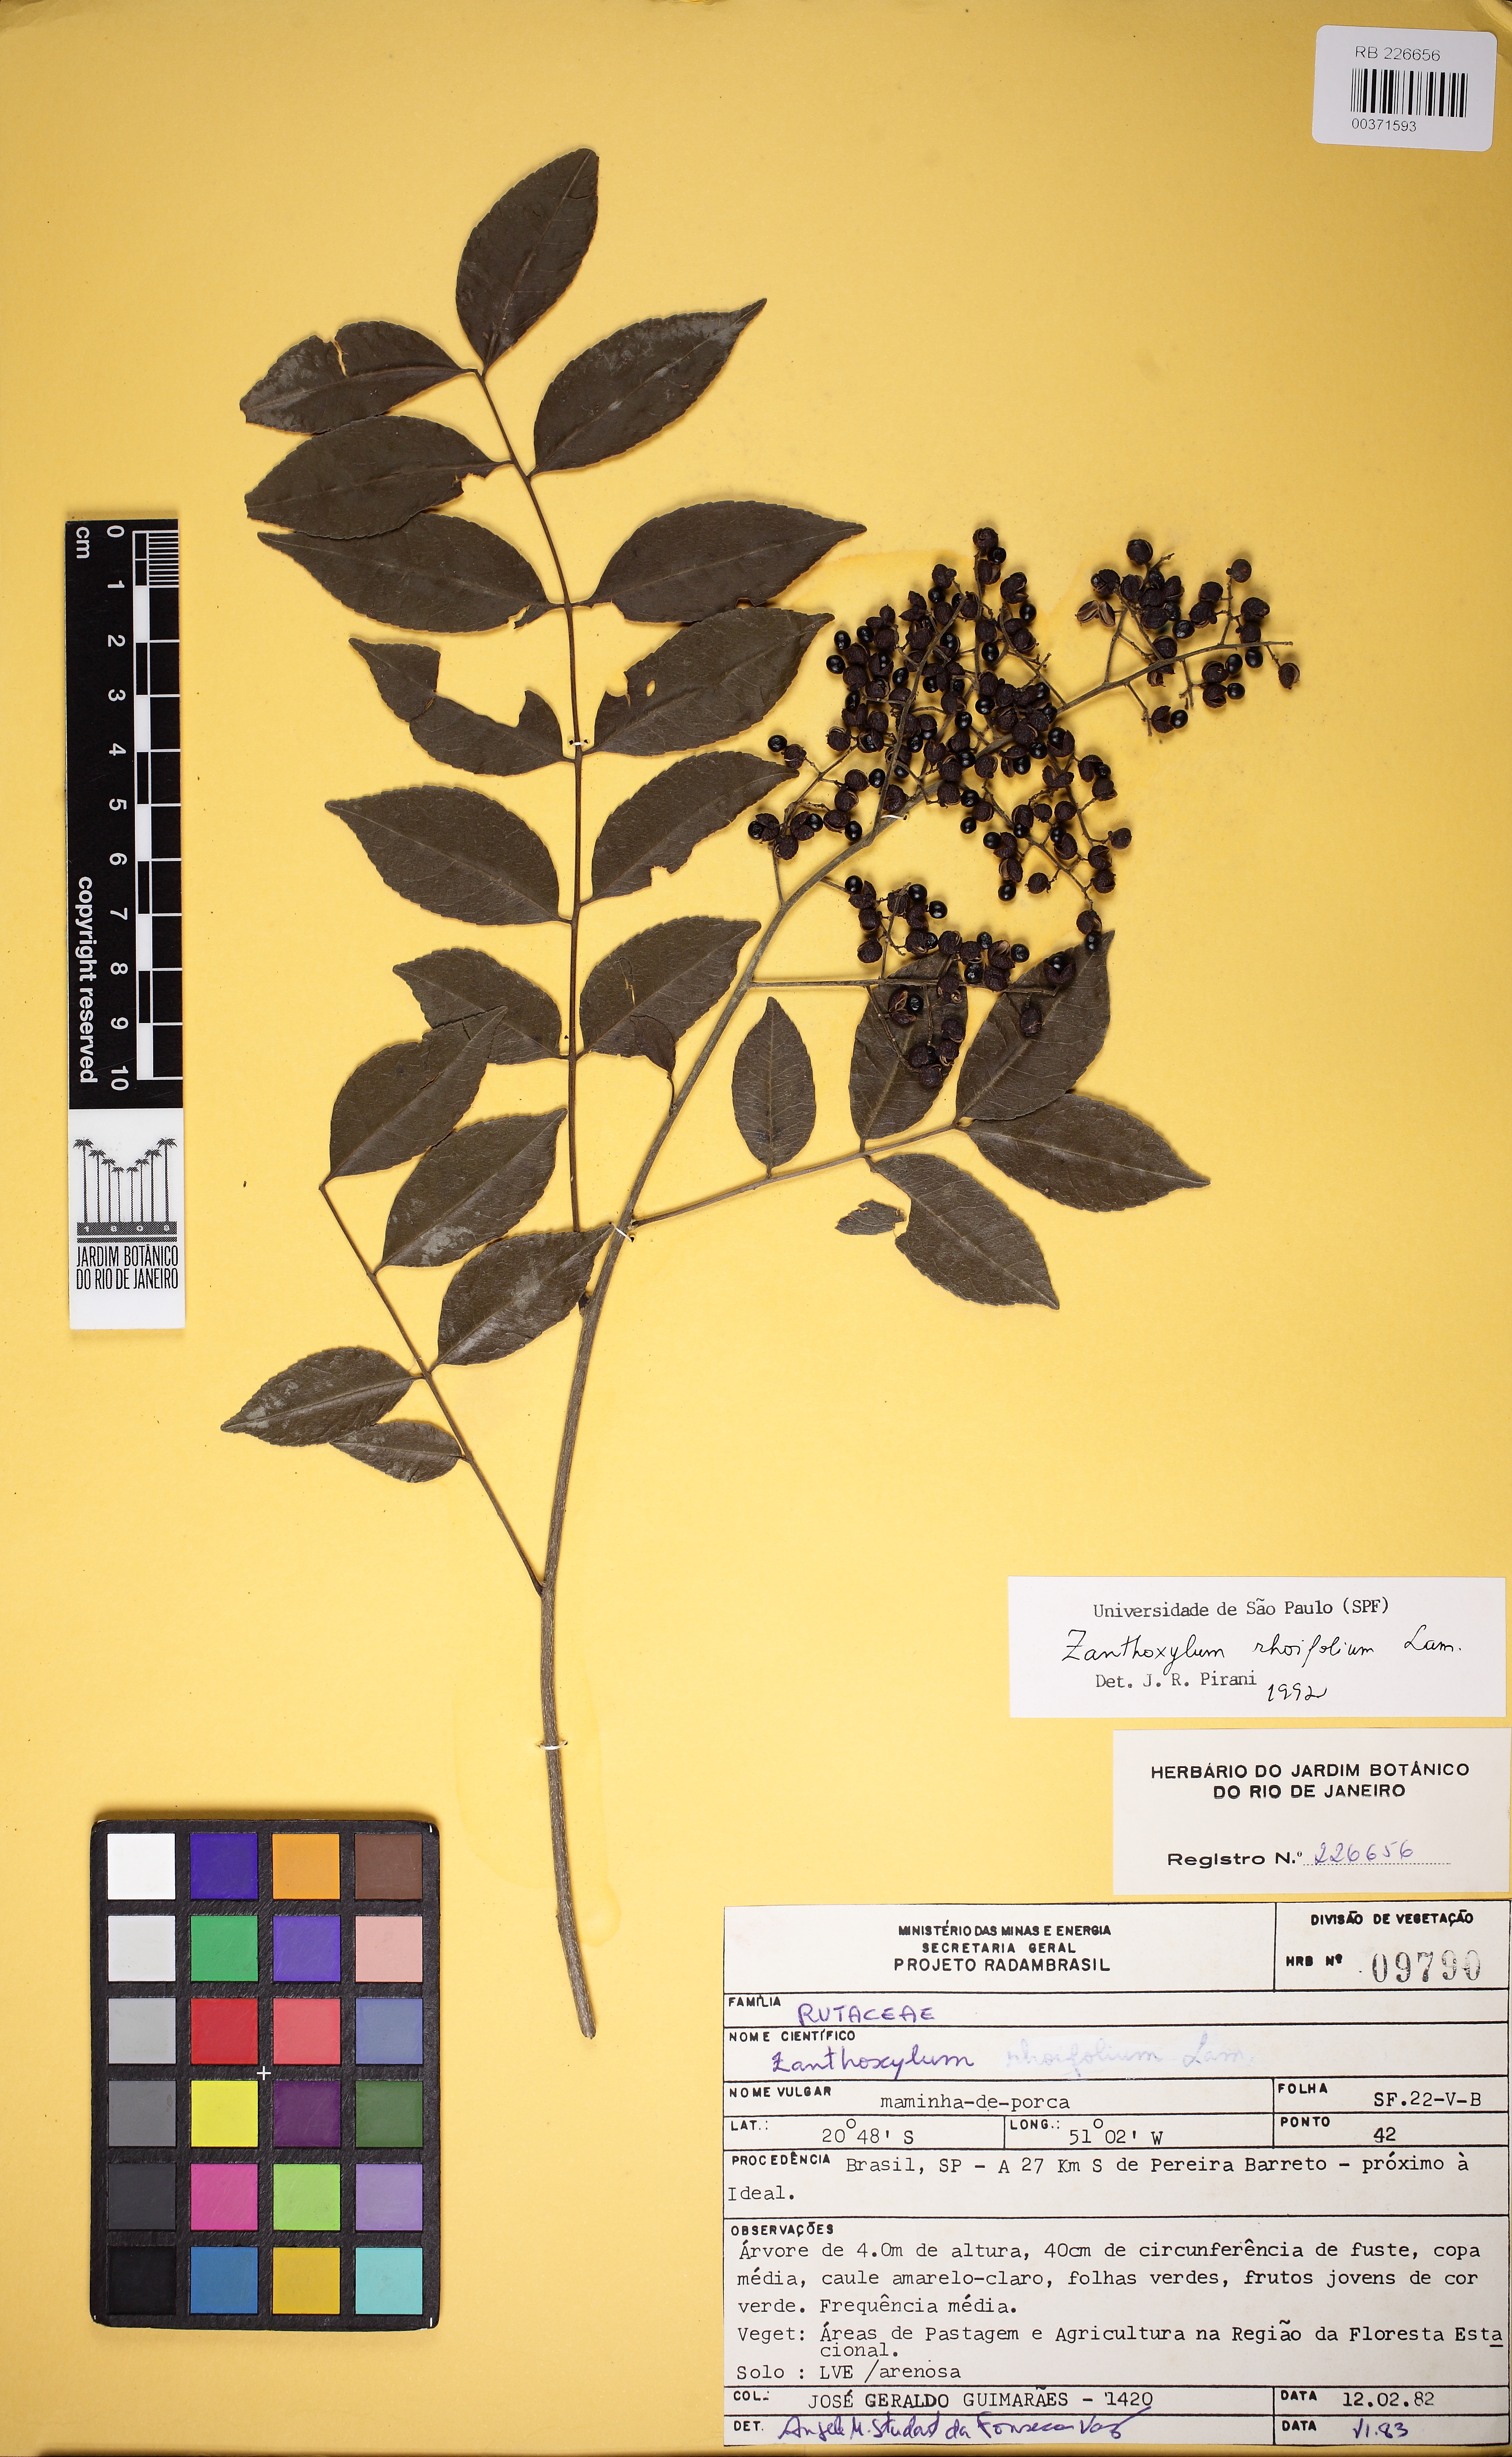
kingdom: Plantae
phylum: Tracheophyta
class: Magnoliopsida
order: Sapindales
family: Rutaceae
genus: Zanthoxylum
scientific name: Zanthoxylum rhoifolium
